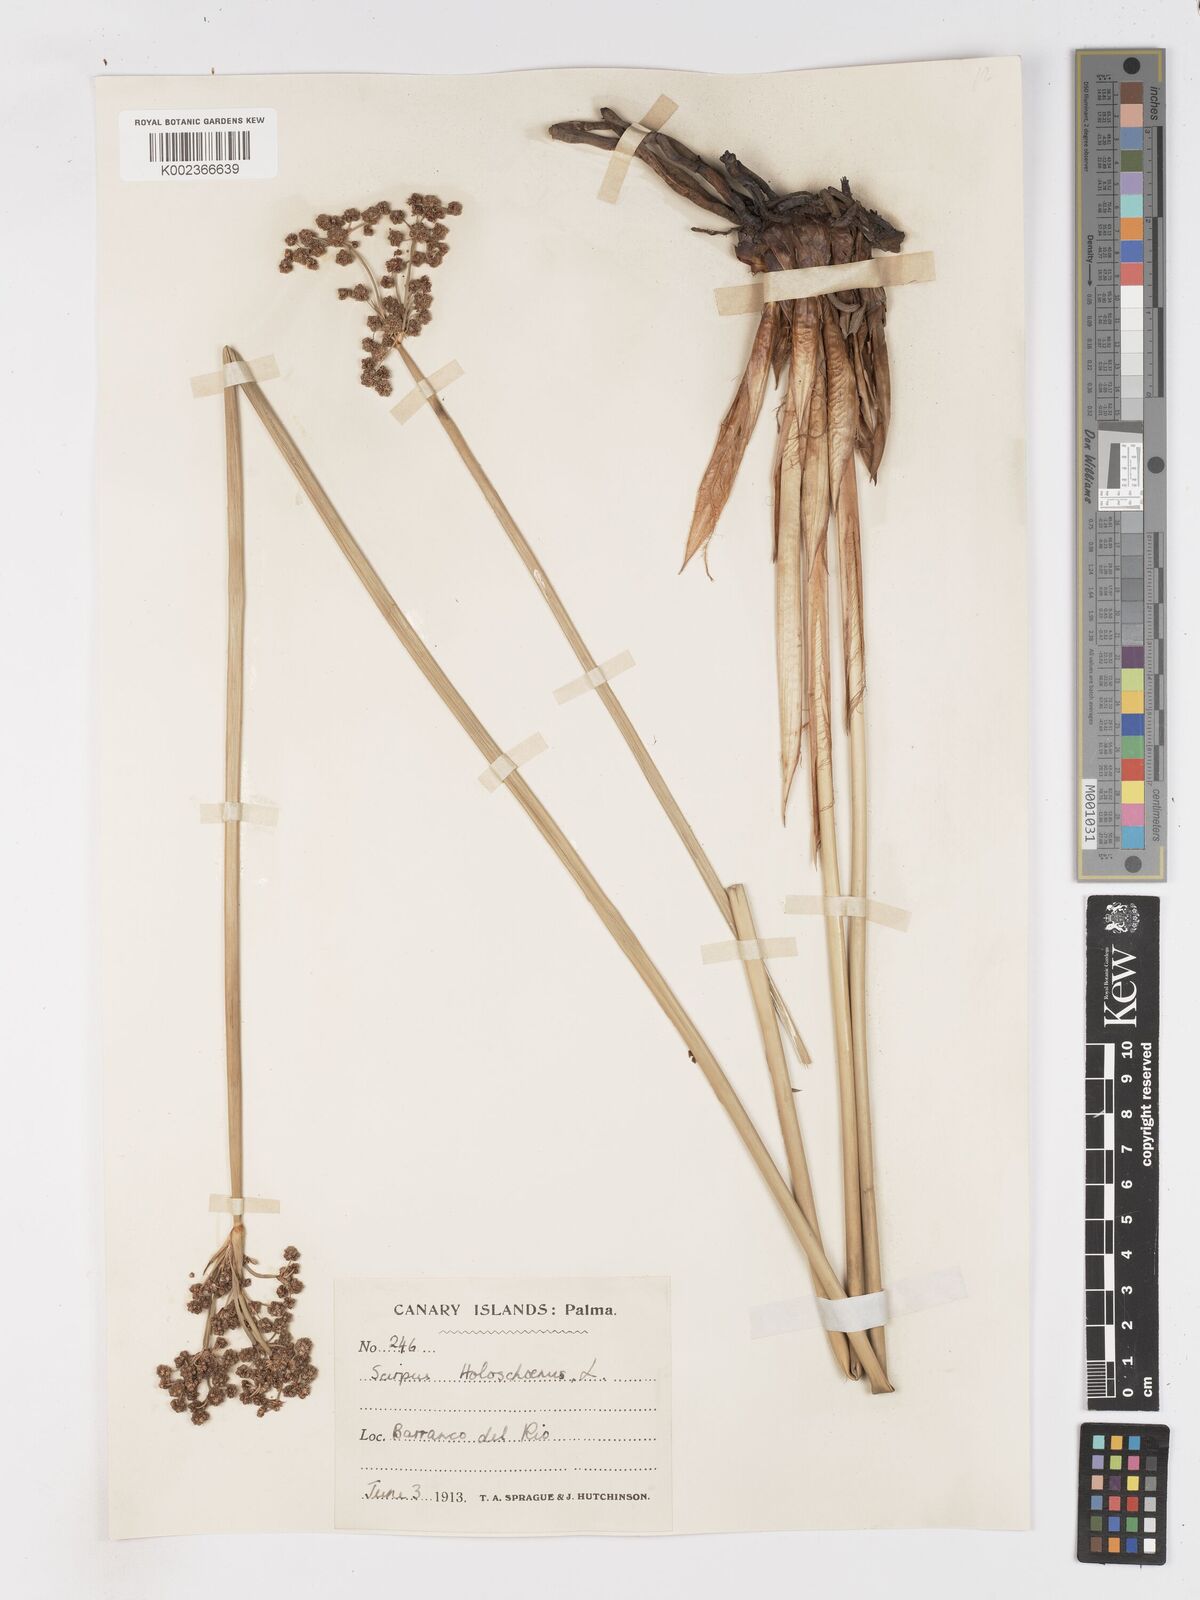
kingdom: Plantae
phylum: Tracheophyta
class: Liliopsida
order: Poales
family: Cyperaceae
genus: Scirpoides
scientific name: Scirpoides holoschoenus
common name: Round-headed club-rush
